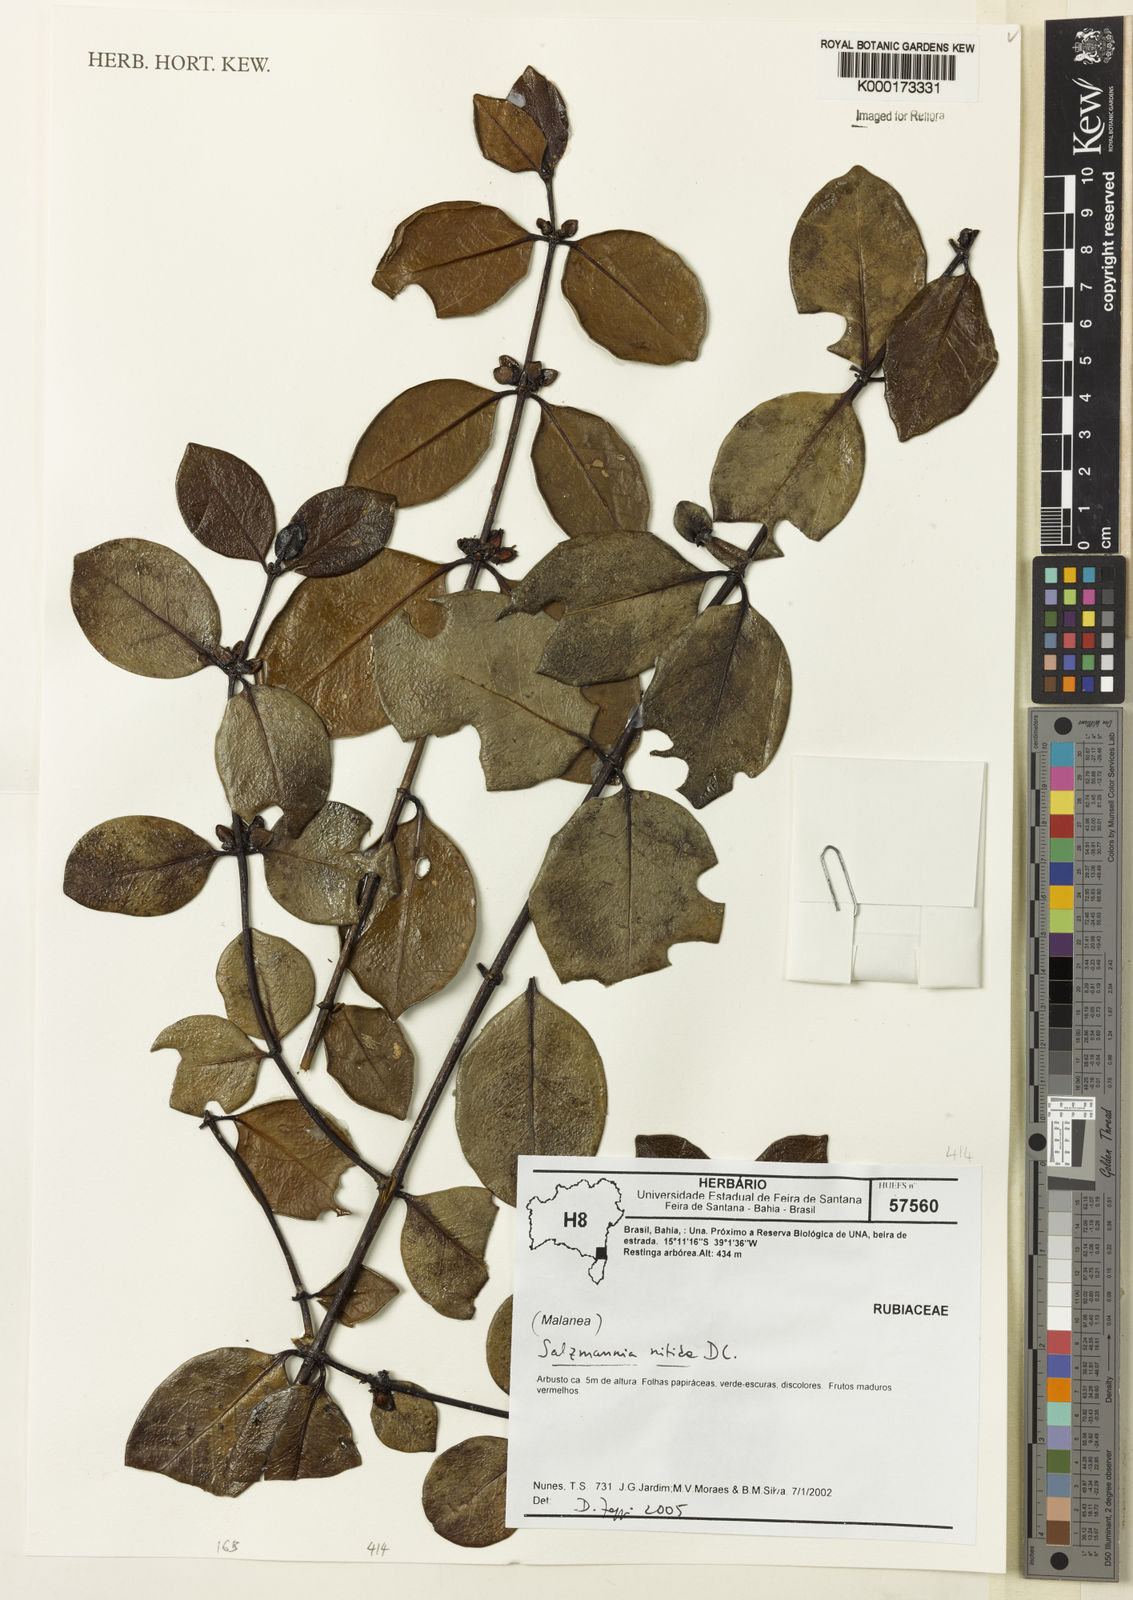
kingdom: Plantae
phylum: Tracheophyta
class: Magnoliopsida
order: Gentianales
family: Rubiaceae
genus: Salzmannia
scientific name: Salzmannia nitida
